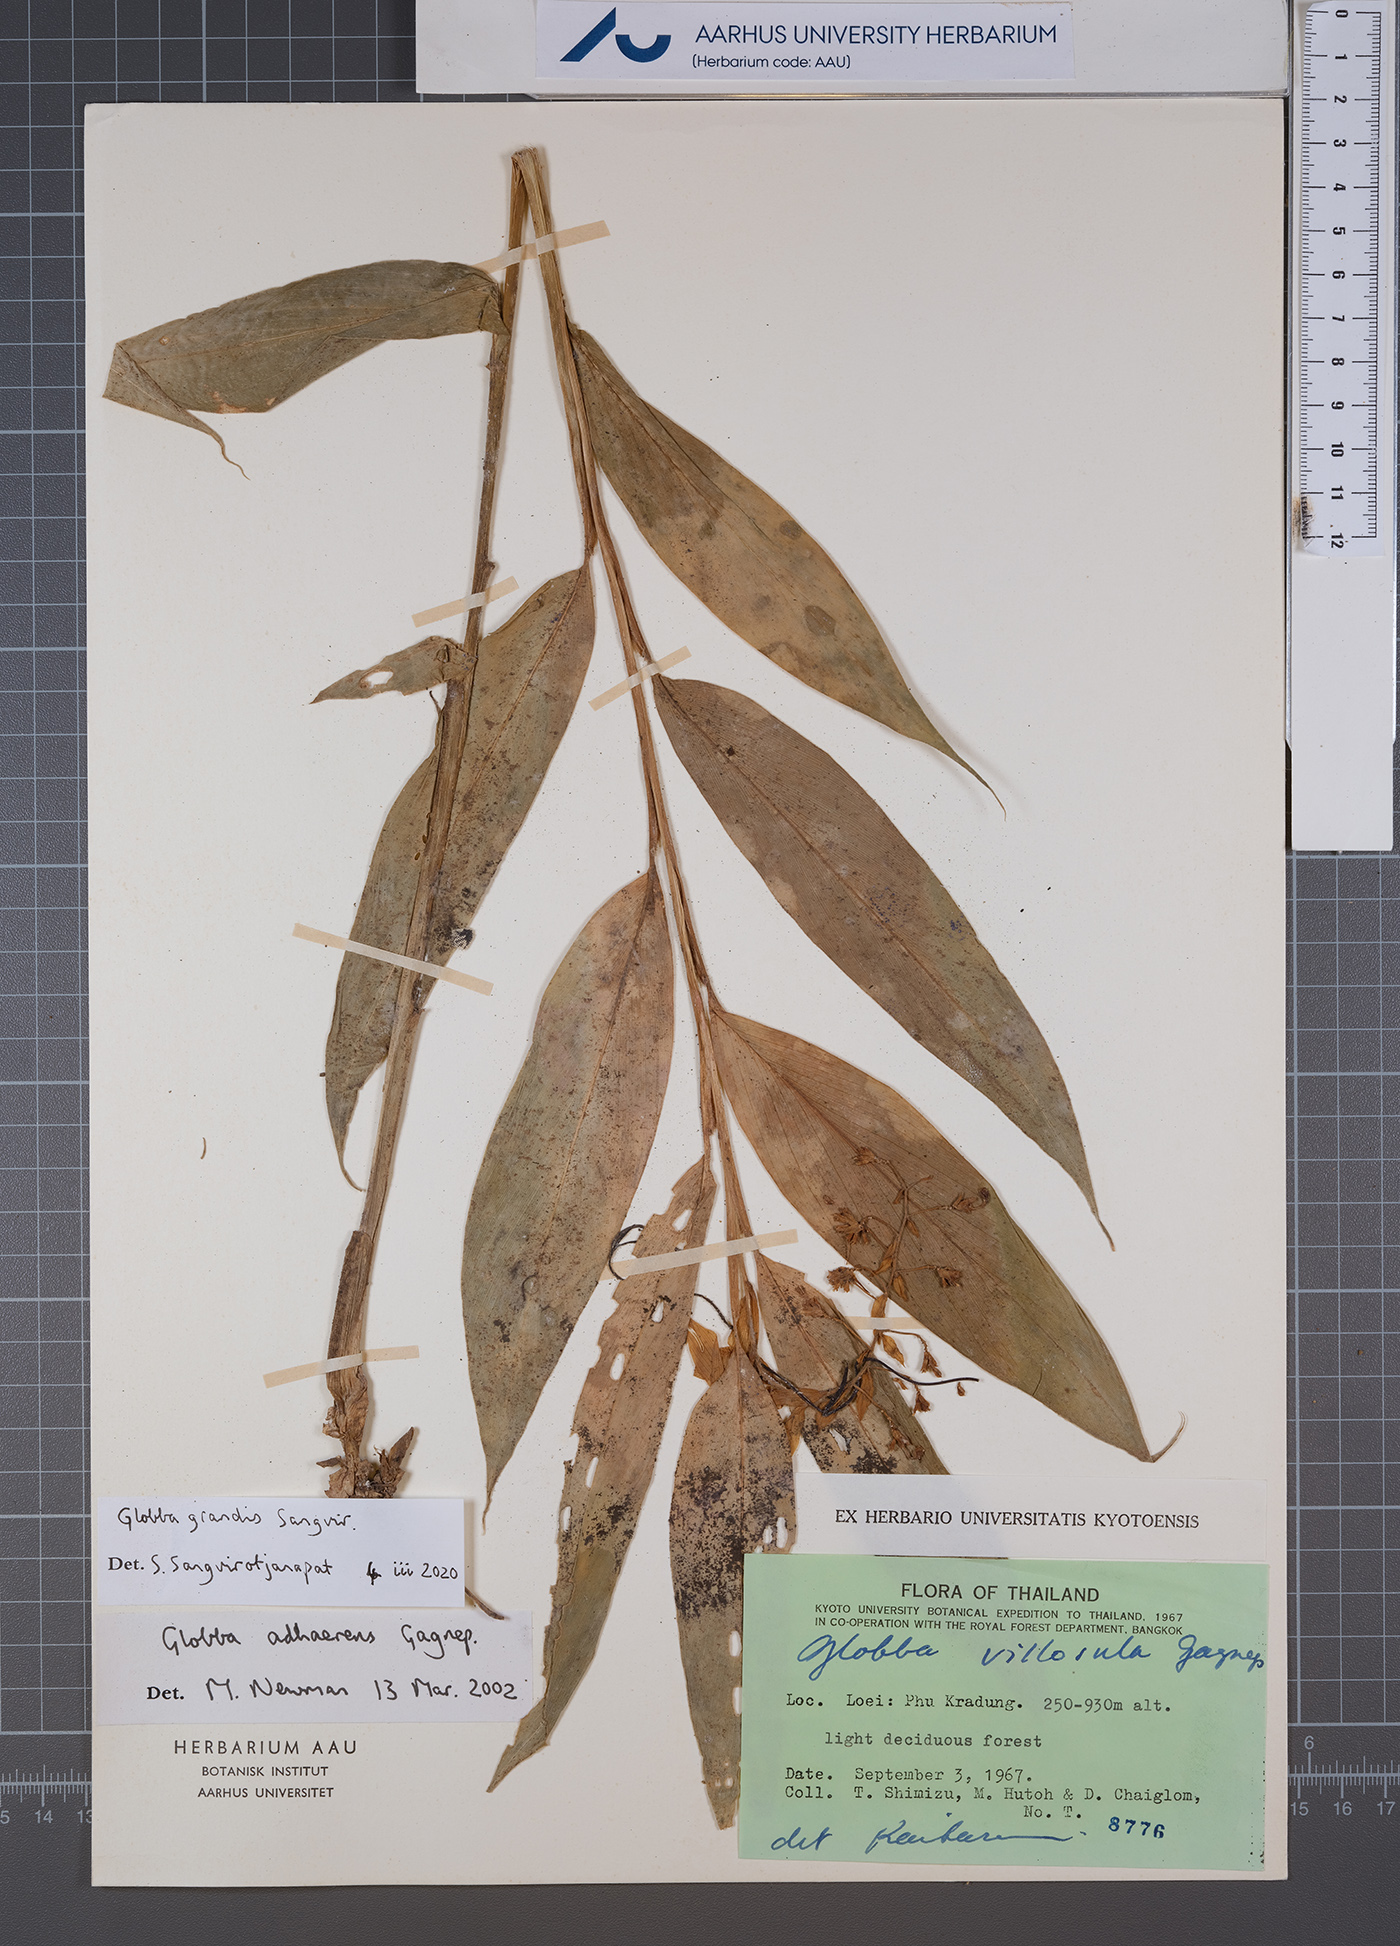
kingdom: Plantae
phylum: Tracheophyta
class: Liliopsida
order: Zingiberales
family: Zingiberaceae
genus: Globba
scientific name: Globba grandis
